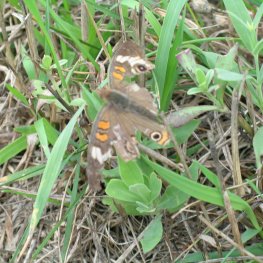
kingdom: Animalia
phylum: Arthropoda
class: Insecta
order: Lepidoptera
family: Nymphalidae
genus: Junonia
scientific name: Junonia coenia
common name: Common Buckeye
